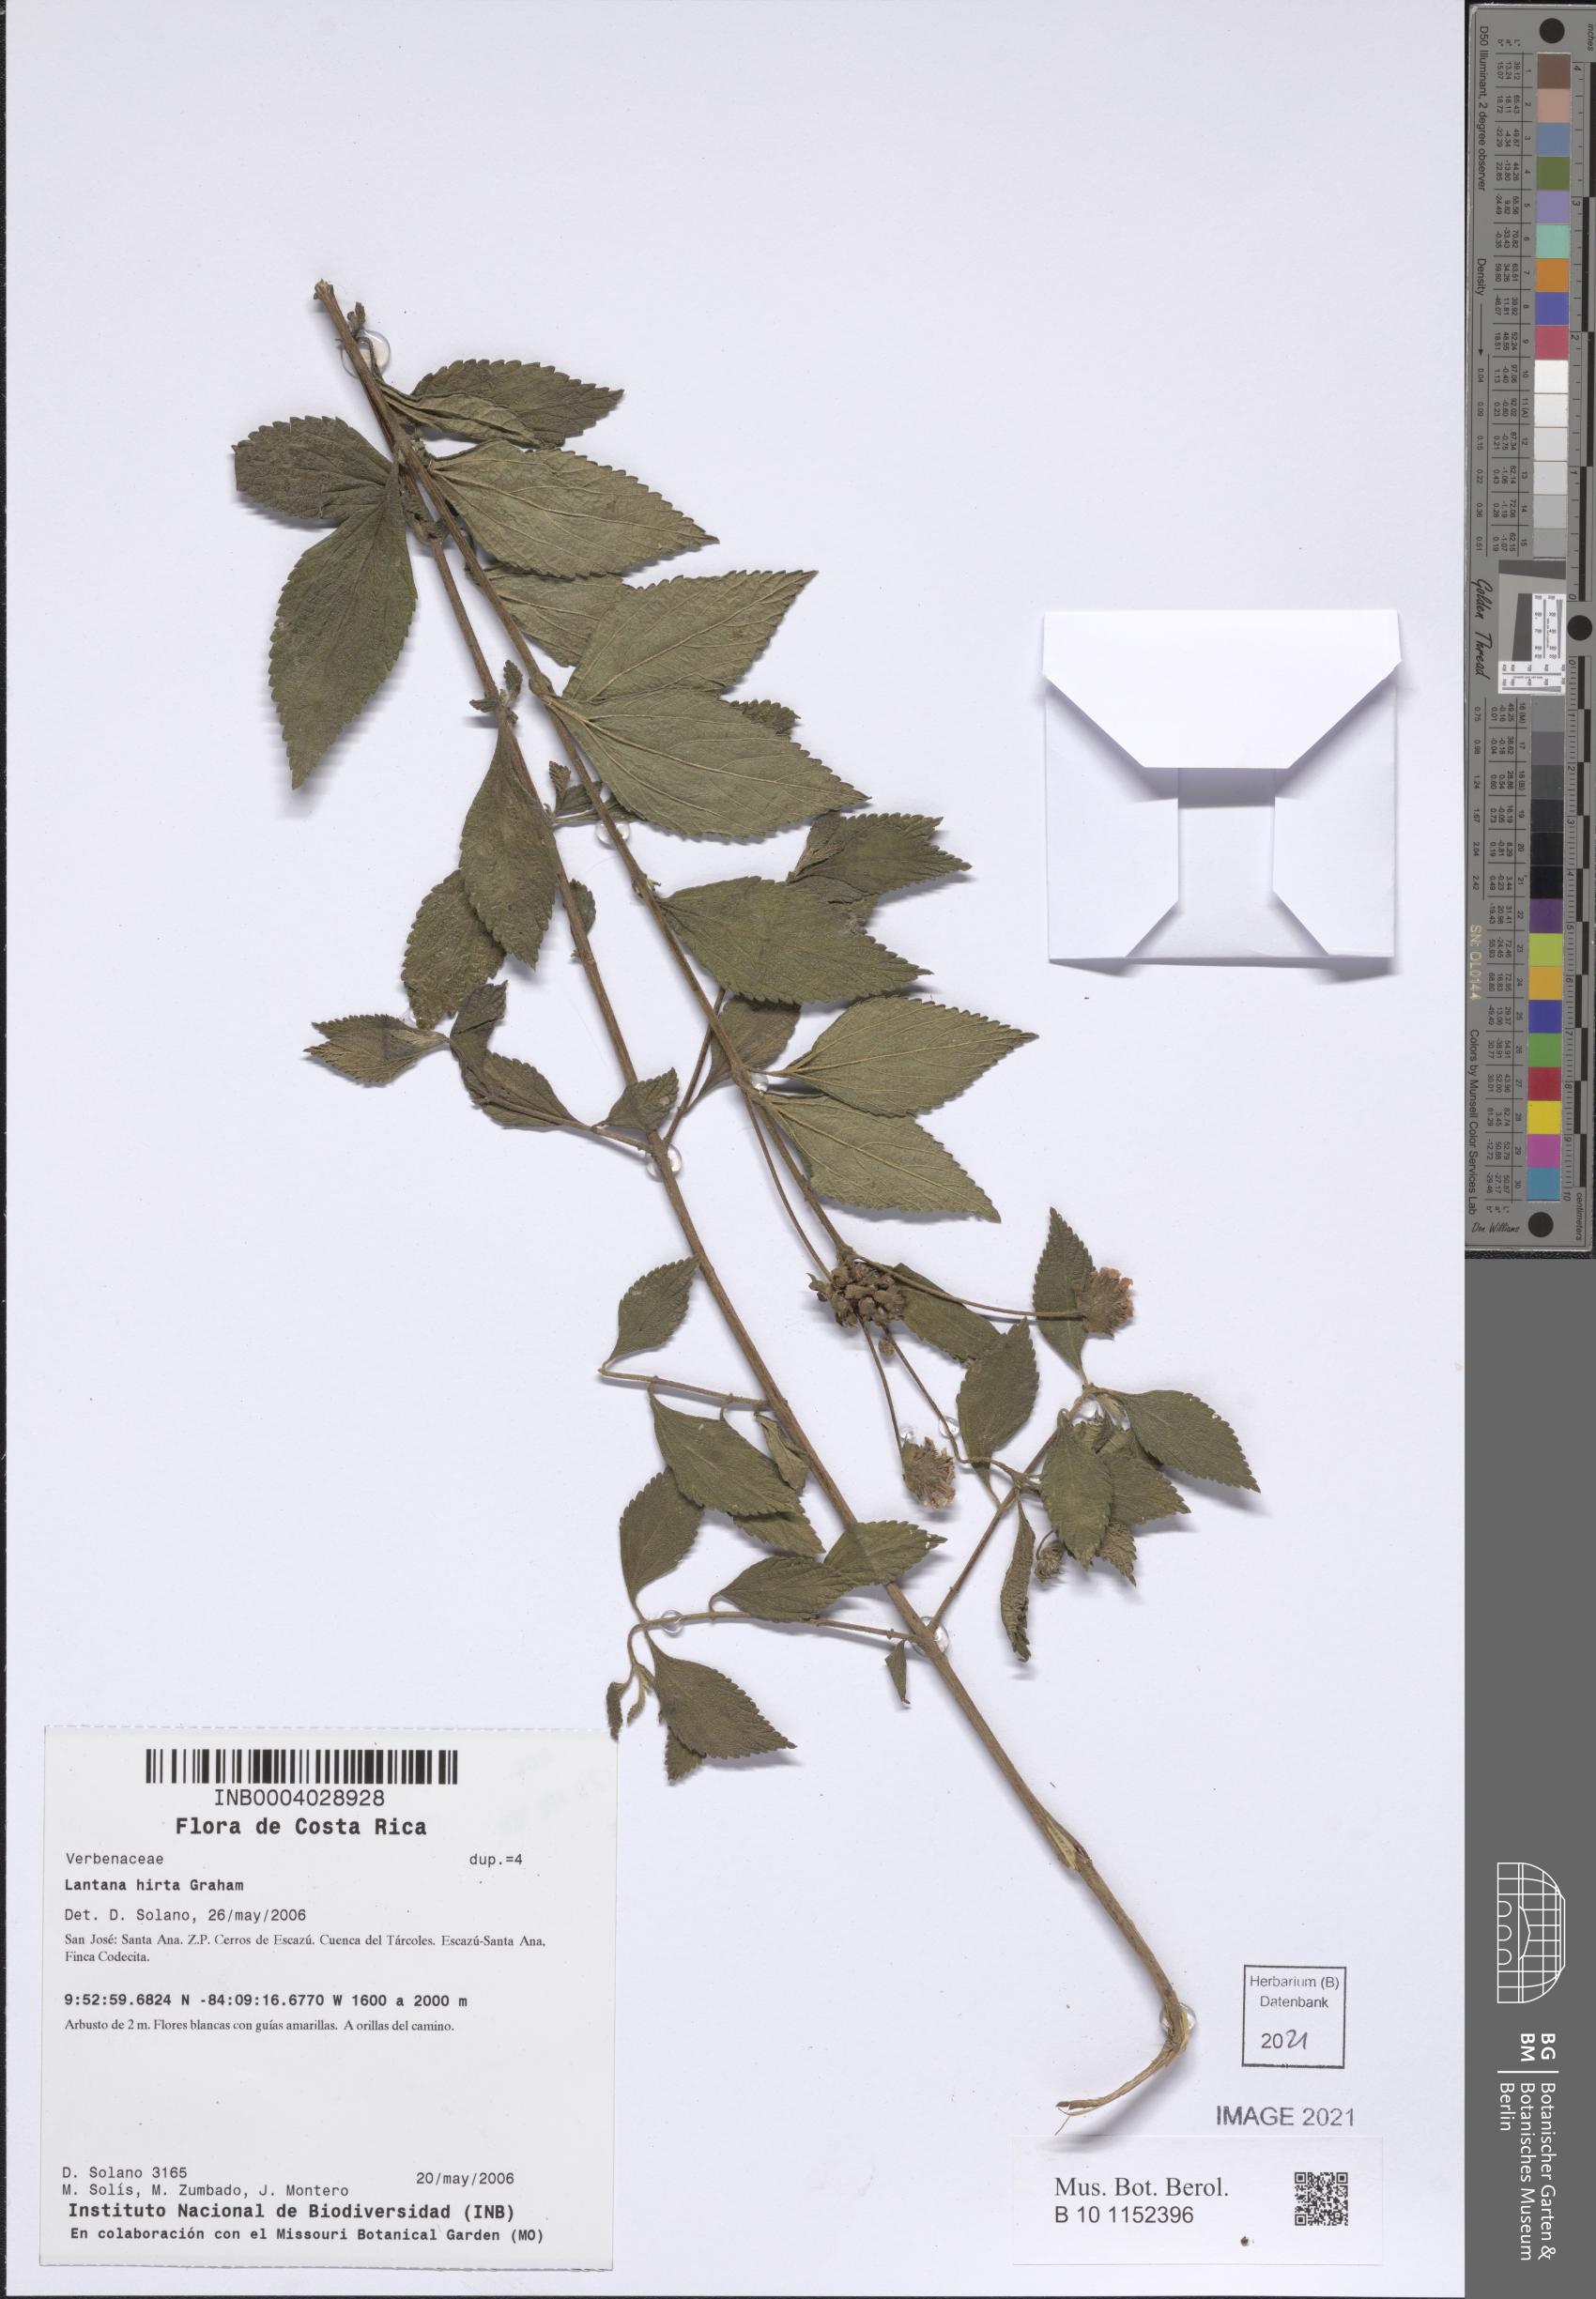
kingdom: Plantae
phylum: Tracheophyta
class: Magnoliopsida
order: Lamiales
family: Verbenaceae
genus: Lantana
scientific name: Lantana hirta
